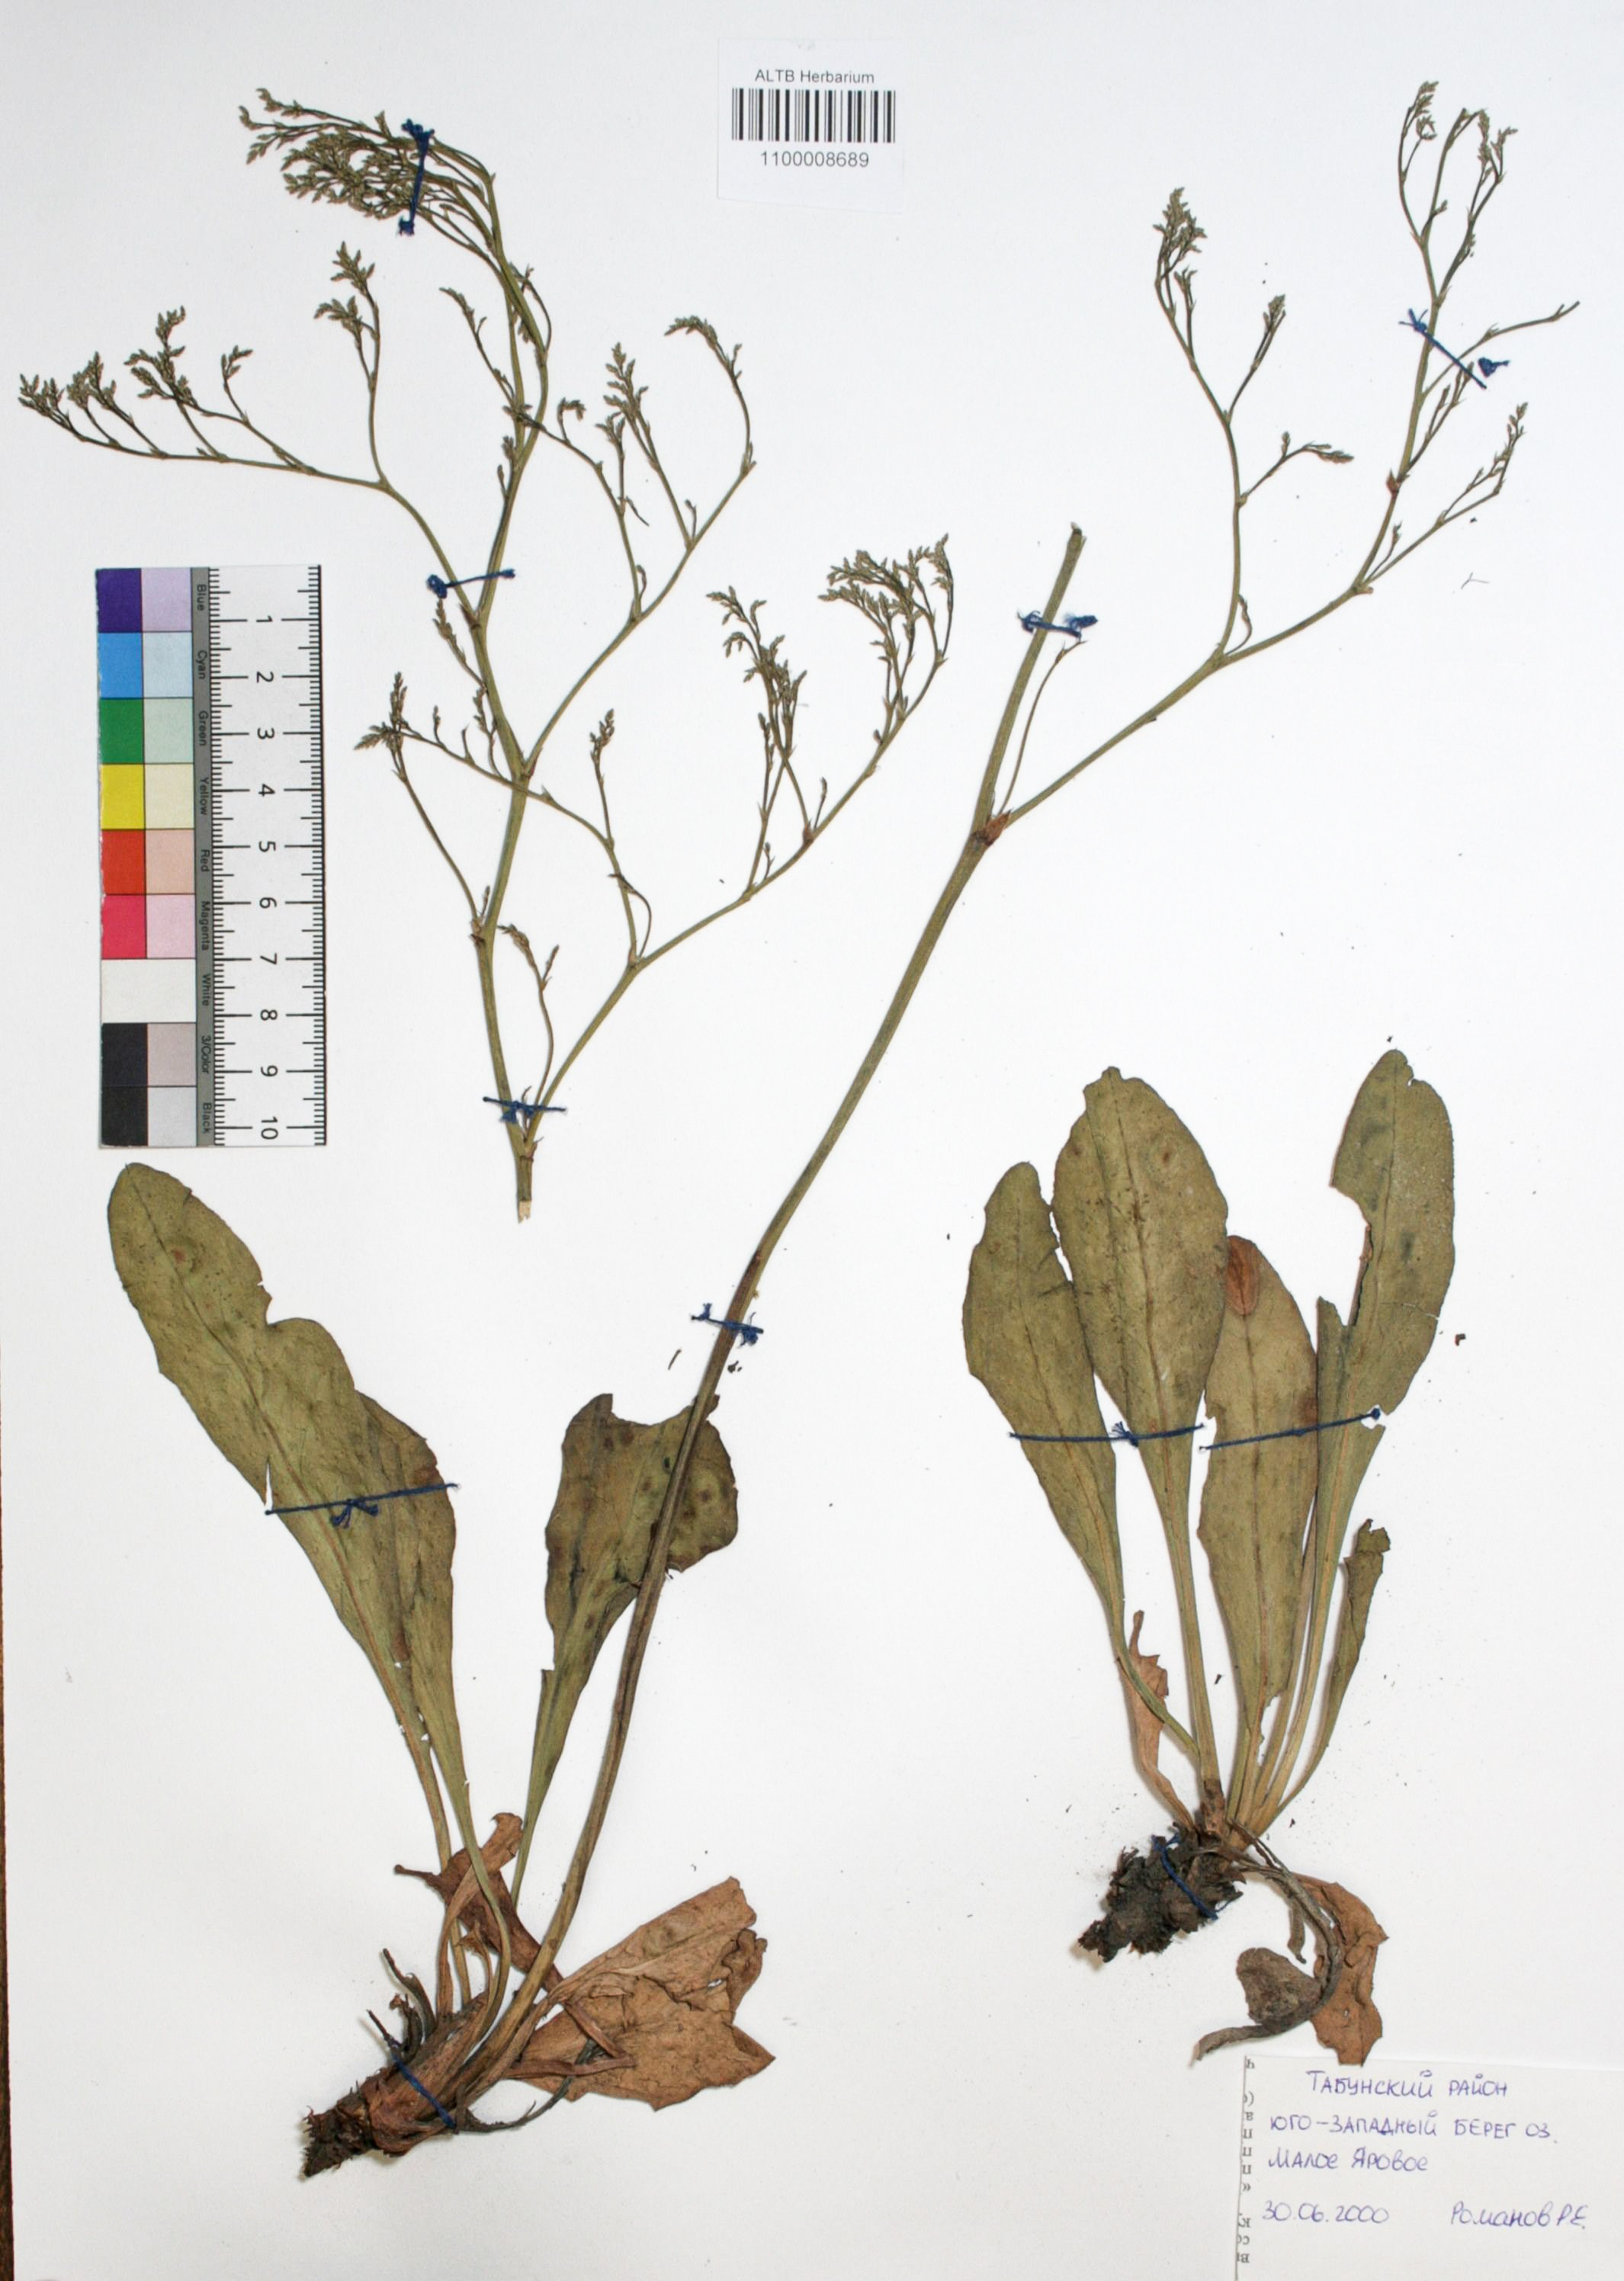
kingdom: Plantae
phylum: Tracheophyta
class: Magnoliopsida
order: Caryophyllales
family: Plumbaginaceae
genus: Goniolimon
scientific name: Goniolimon speciosum
